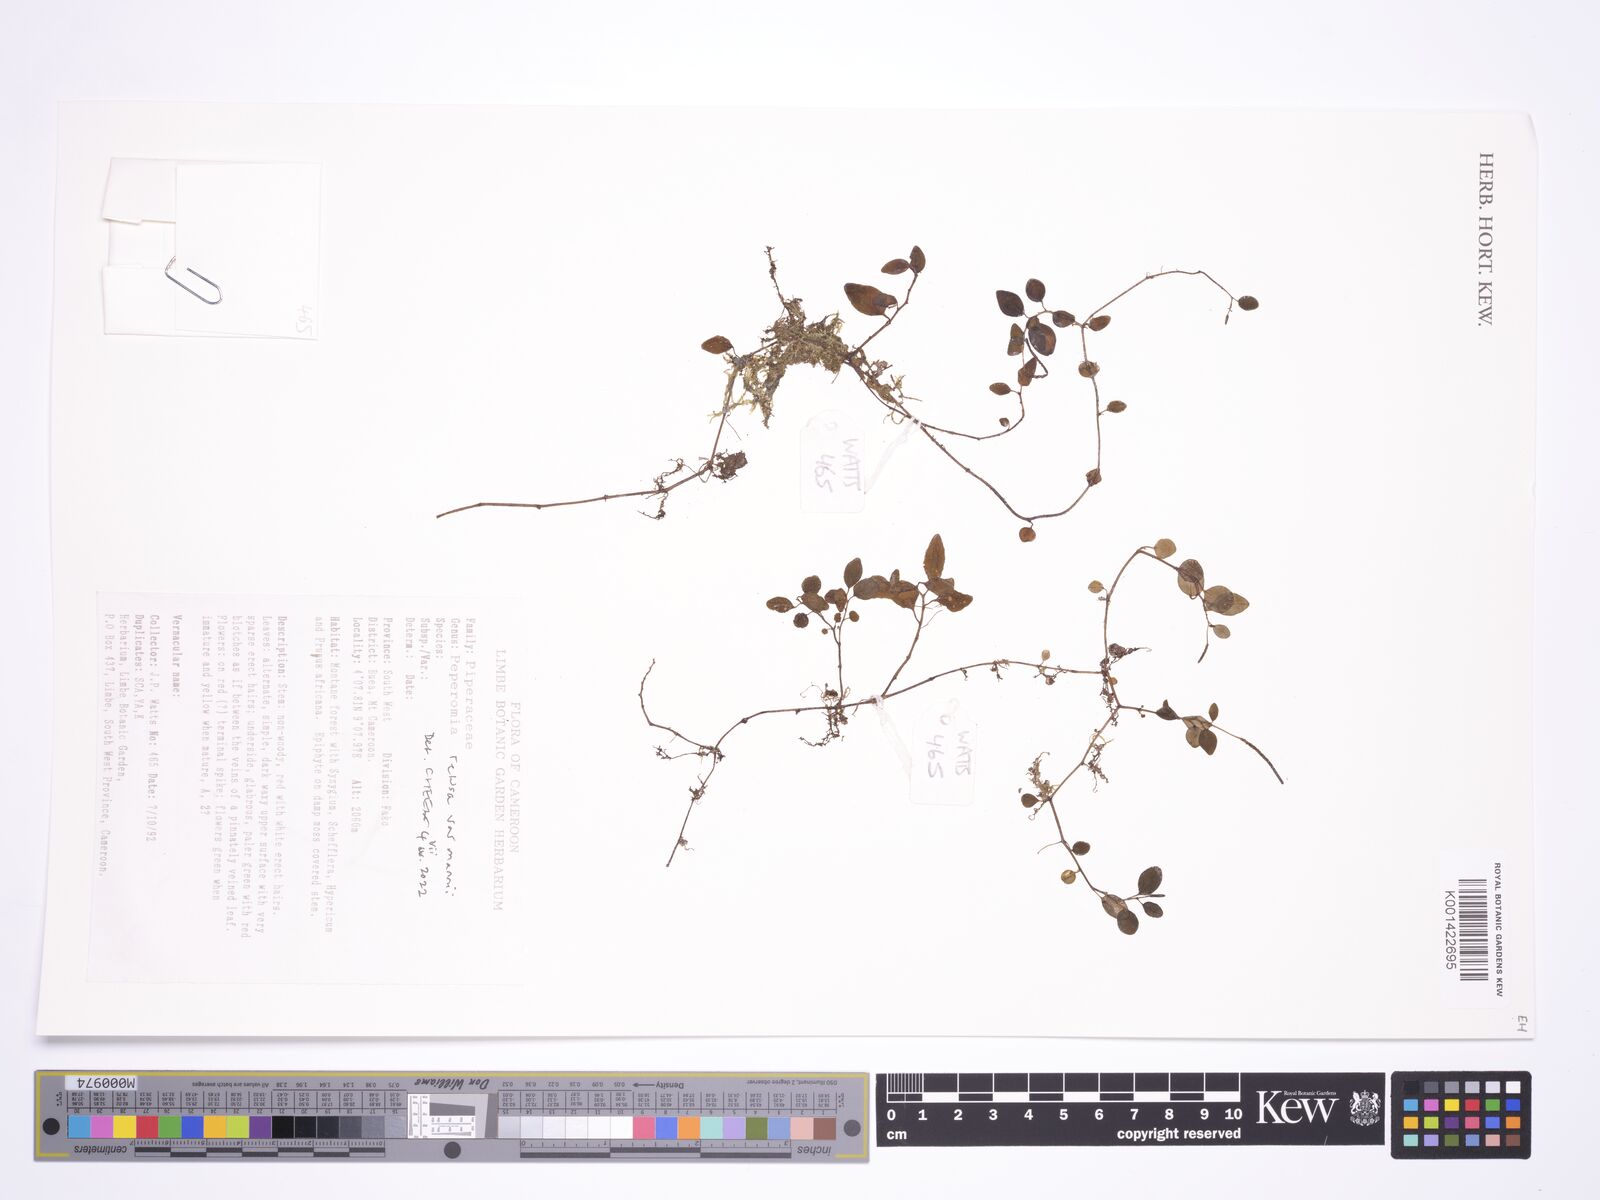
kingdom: Plantae
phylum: Tracheophyta
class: Magnoliopsida
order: Piperales
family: Piperaceae
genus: Peperomia
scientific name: Peperomia
